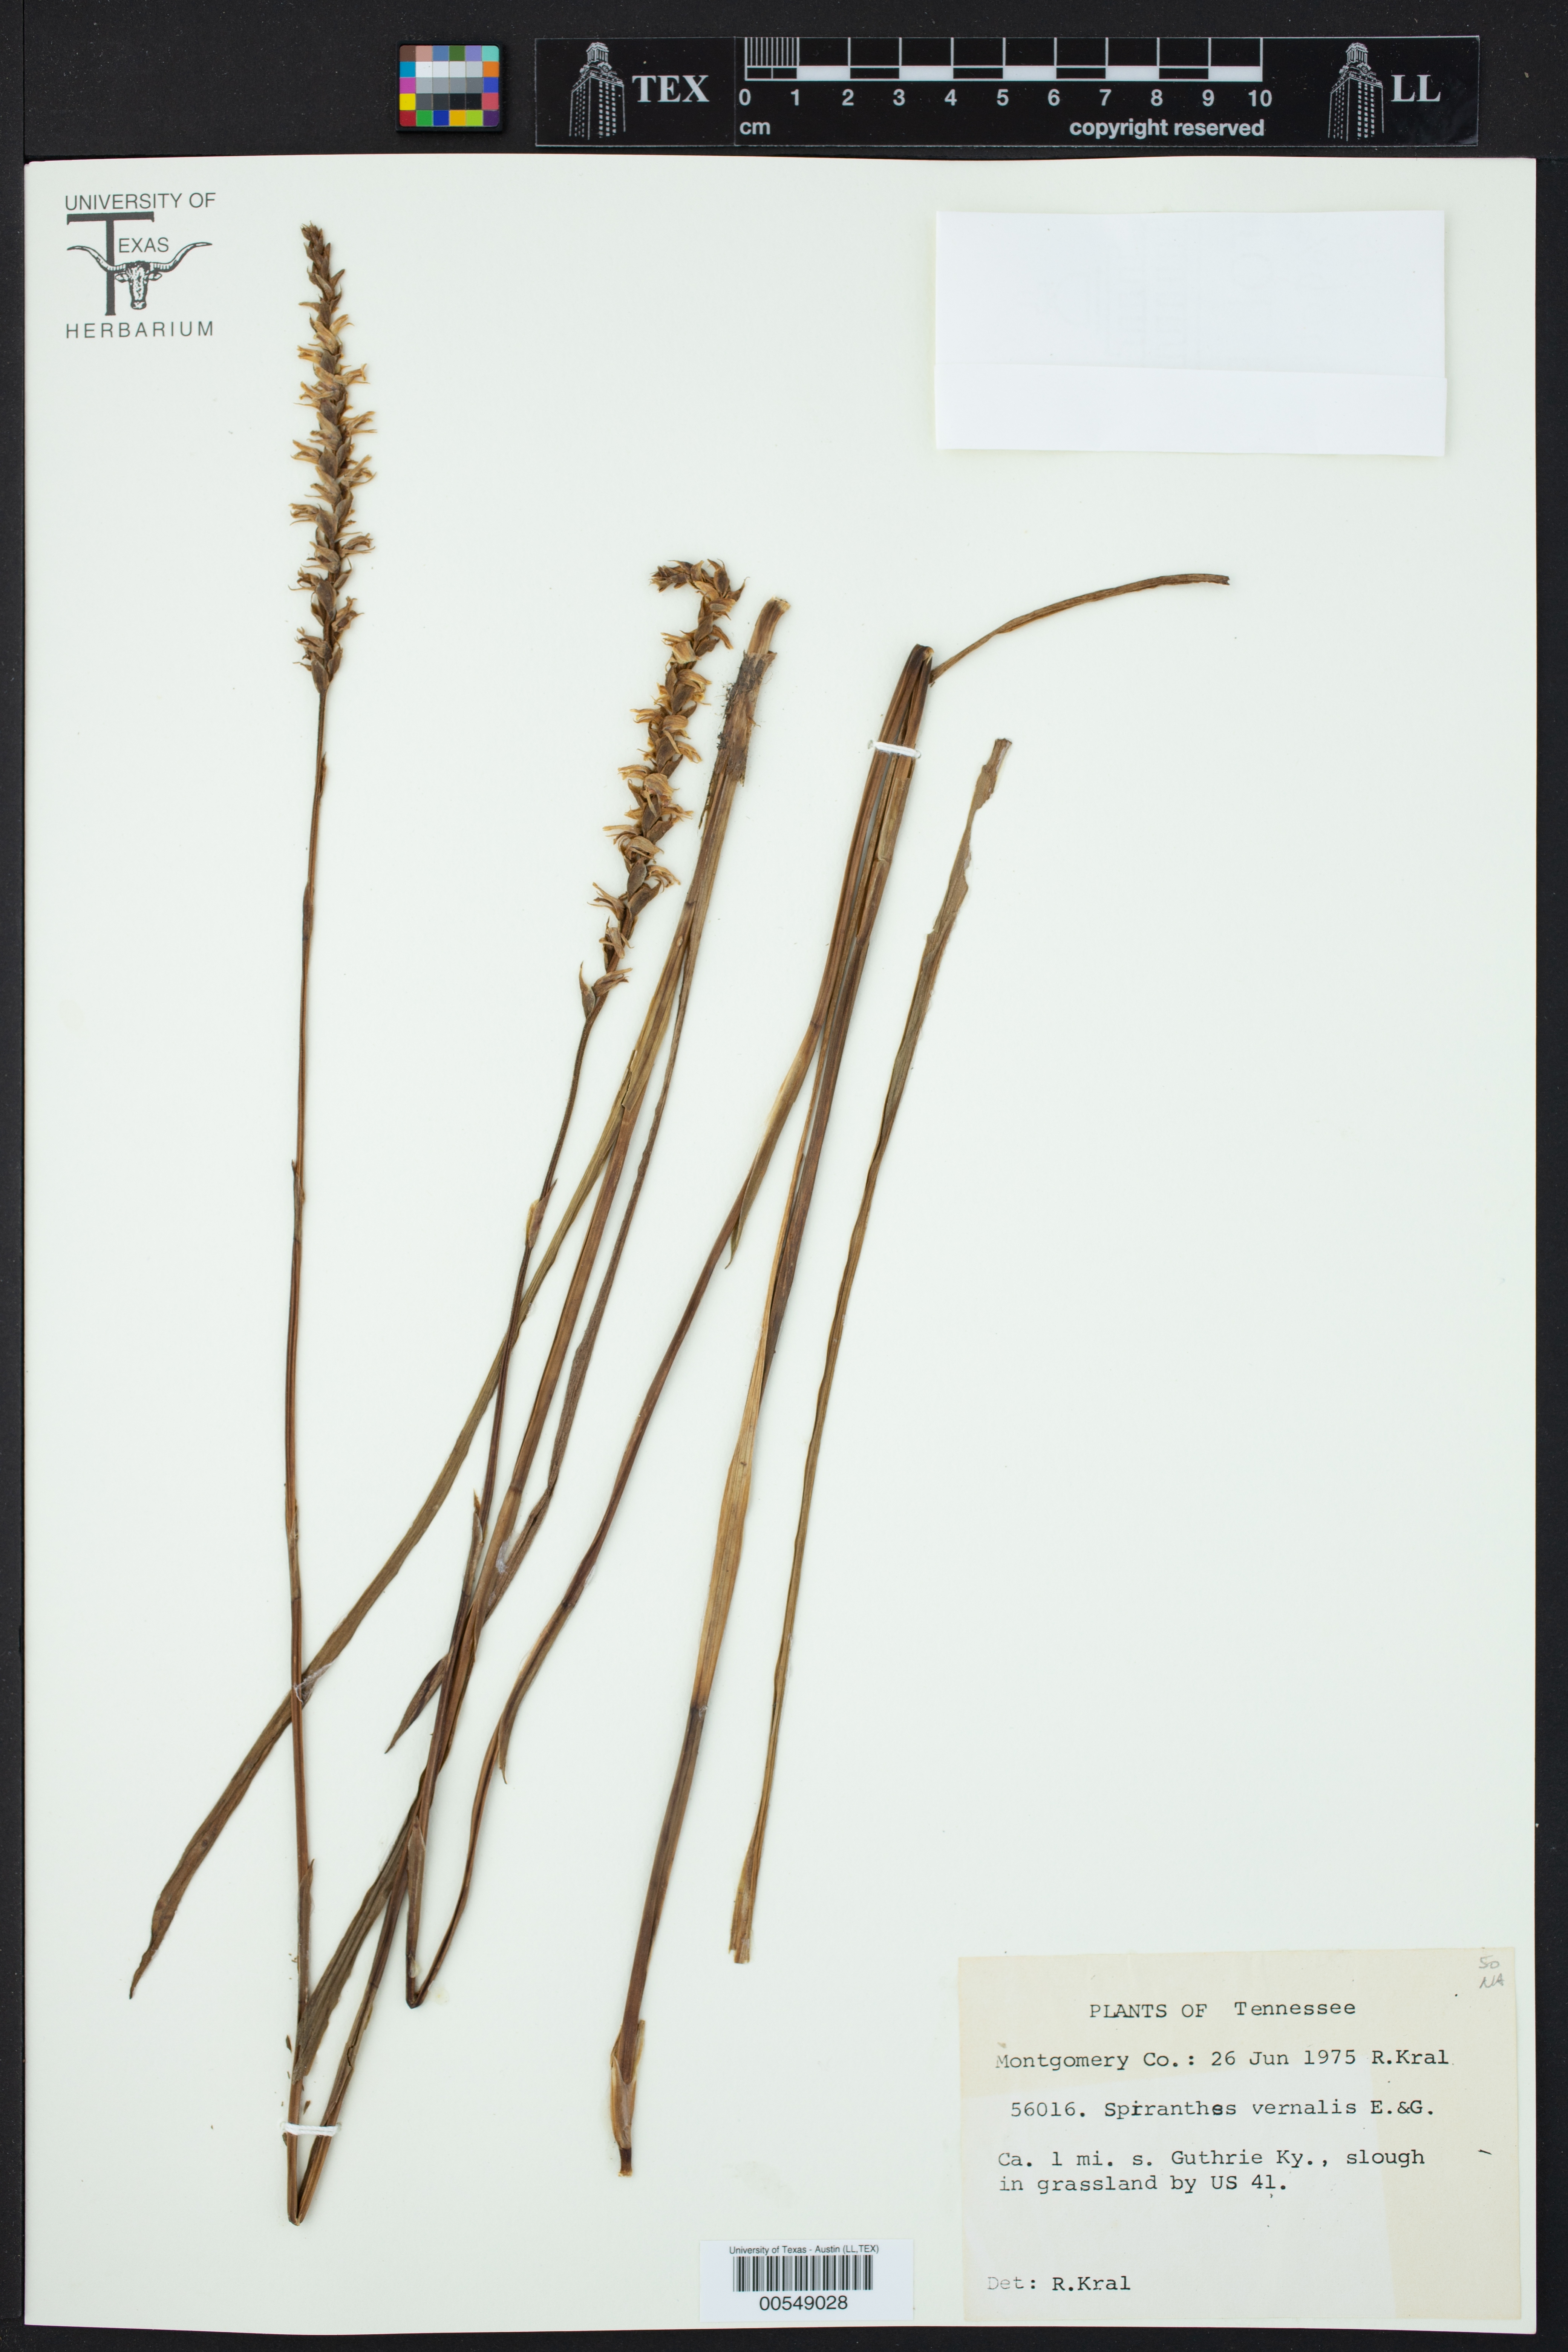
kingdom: Plantae
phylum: Tracheophyta
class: Liliopsida
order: Asparagales
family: Orchidaceae
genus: Spiranthes
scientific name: Spiranthes vernalis
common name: Spring ladies'-tresses
